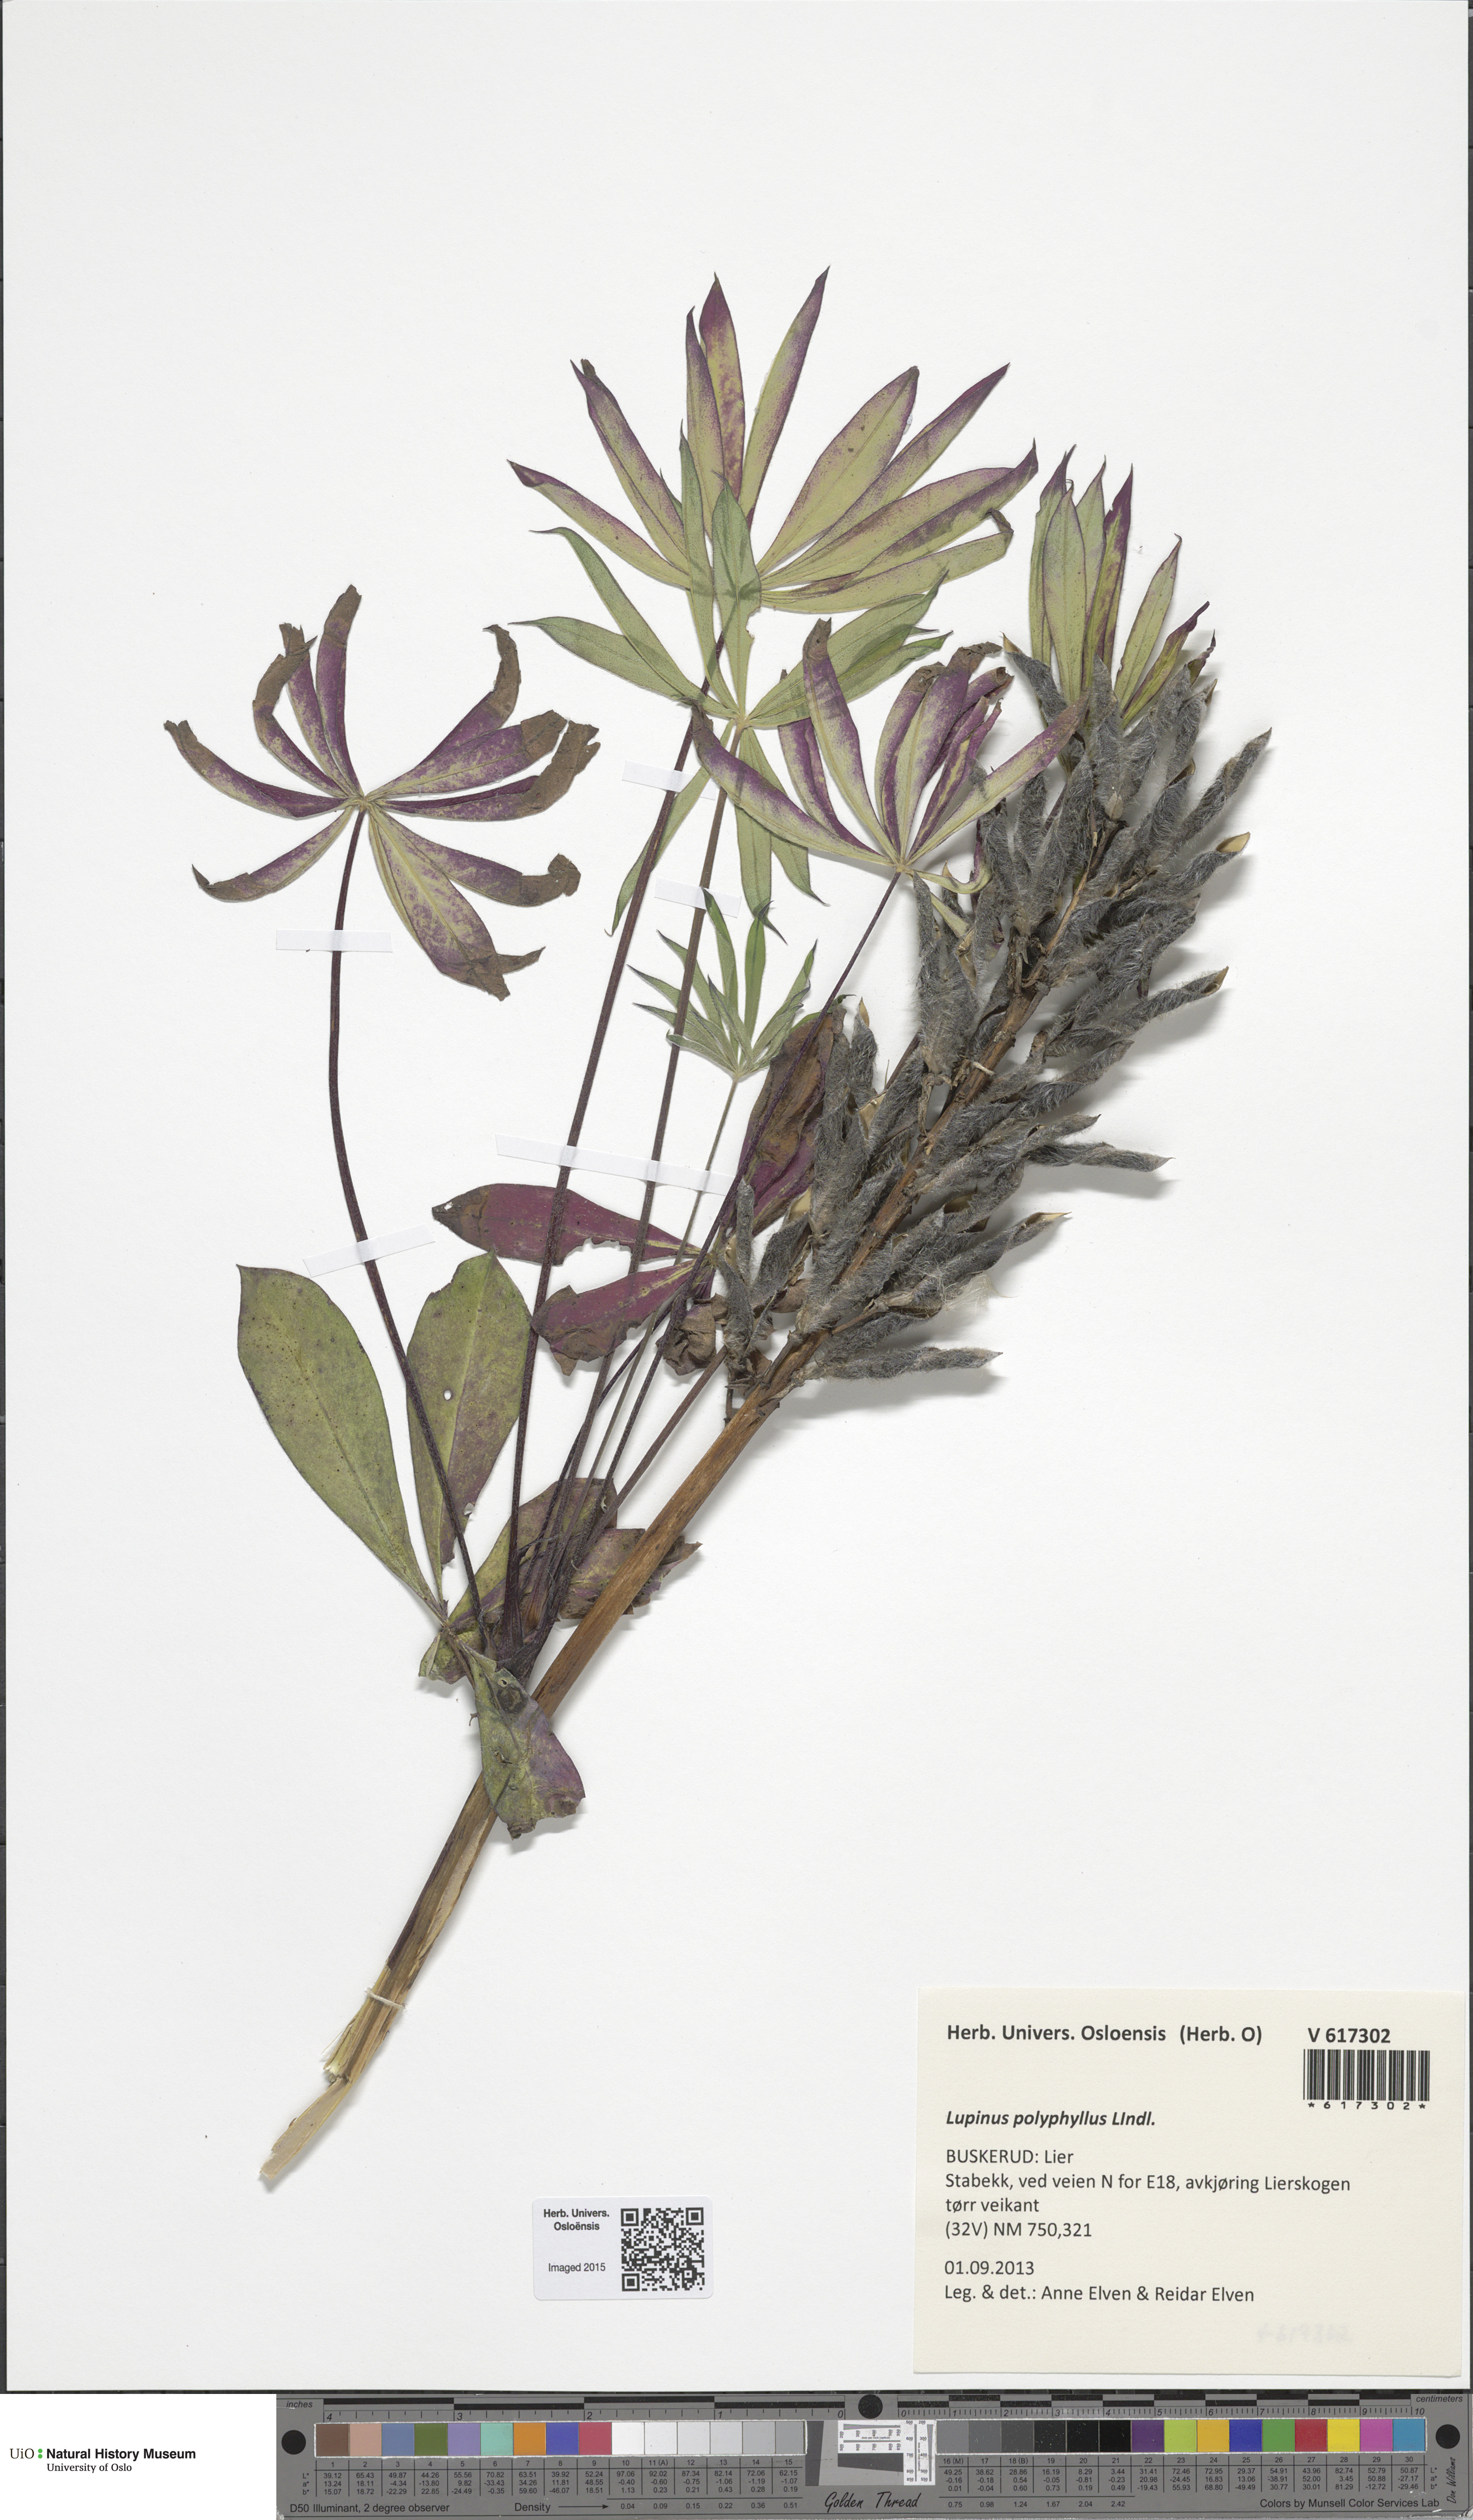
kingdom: Plantae
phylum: Tracheophyta
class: Magnoliopsida
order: Fabales
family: Fabaceae
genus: Lupinus
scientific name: Lupinus polyphyllus
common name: Garden lupin
